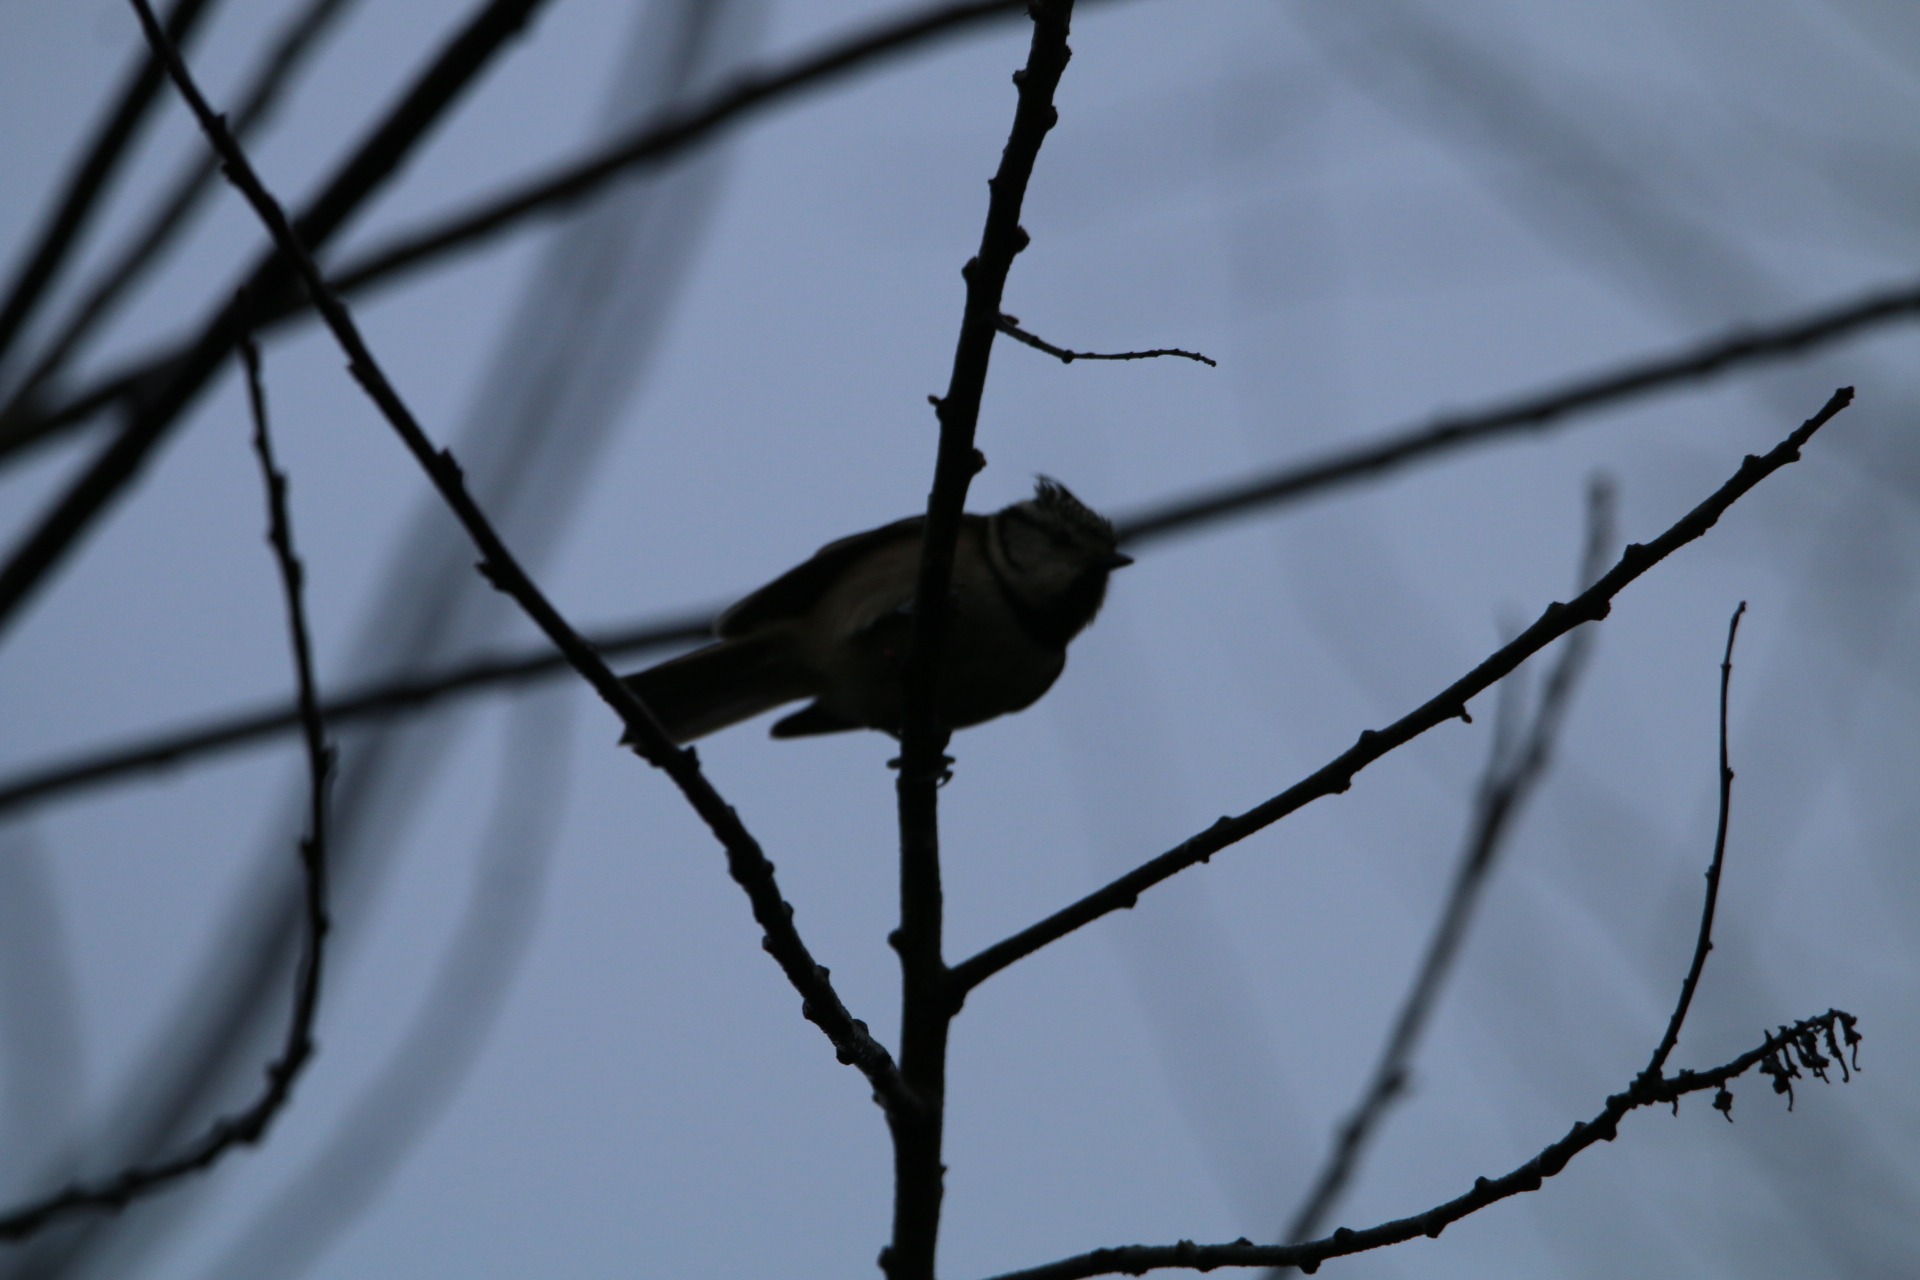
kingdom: Animalia
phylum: Chordata
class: Aves
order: Passeriformes
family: Paridae
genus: Lophophanes
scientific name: Lophophanes cristatus
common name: Topmejse
